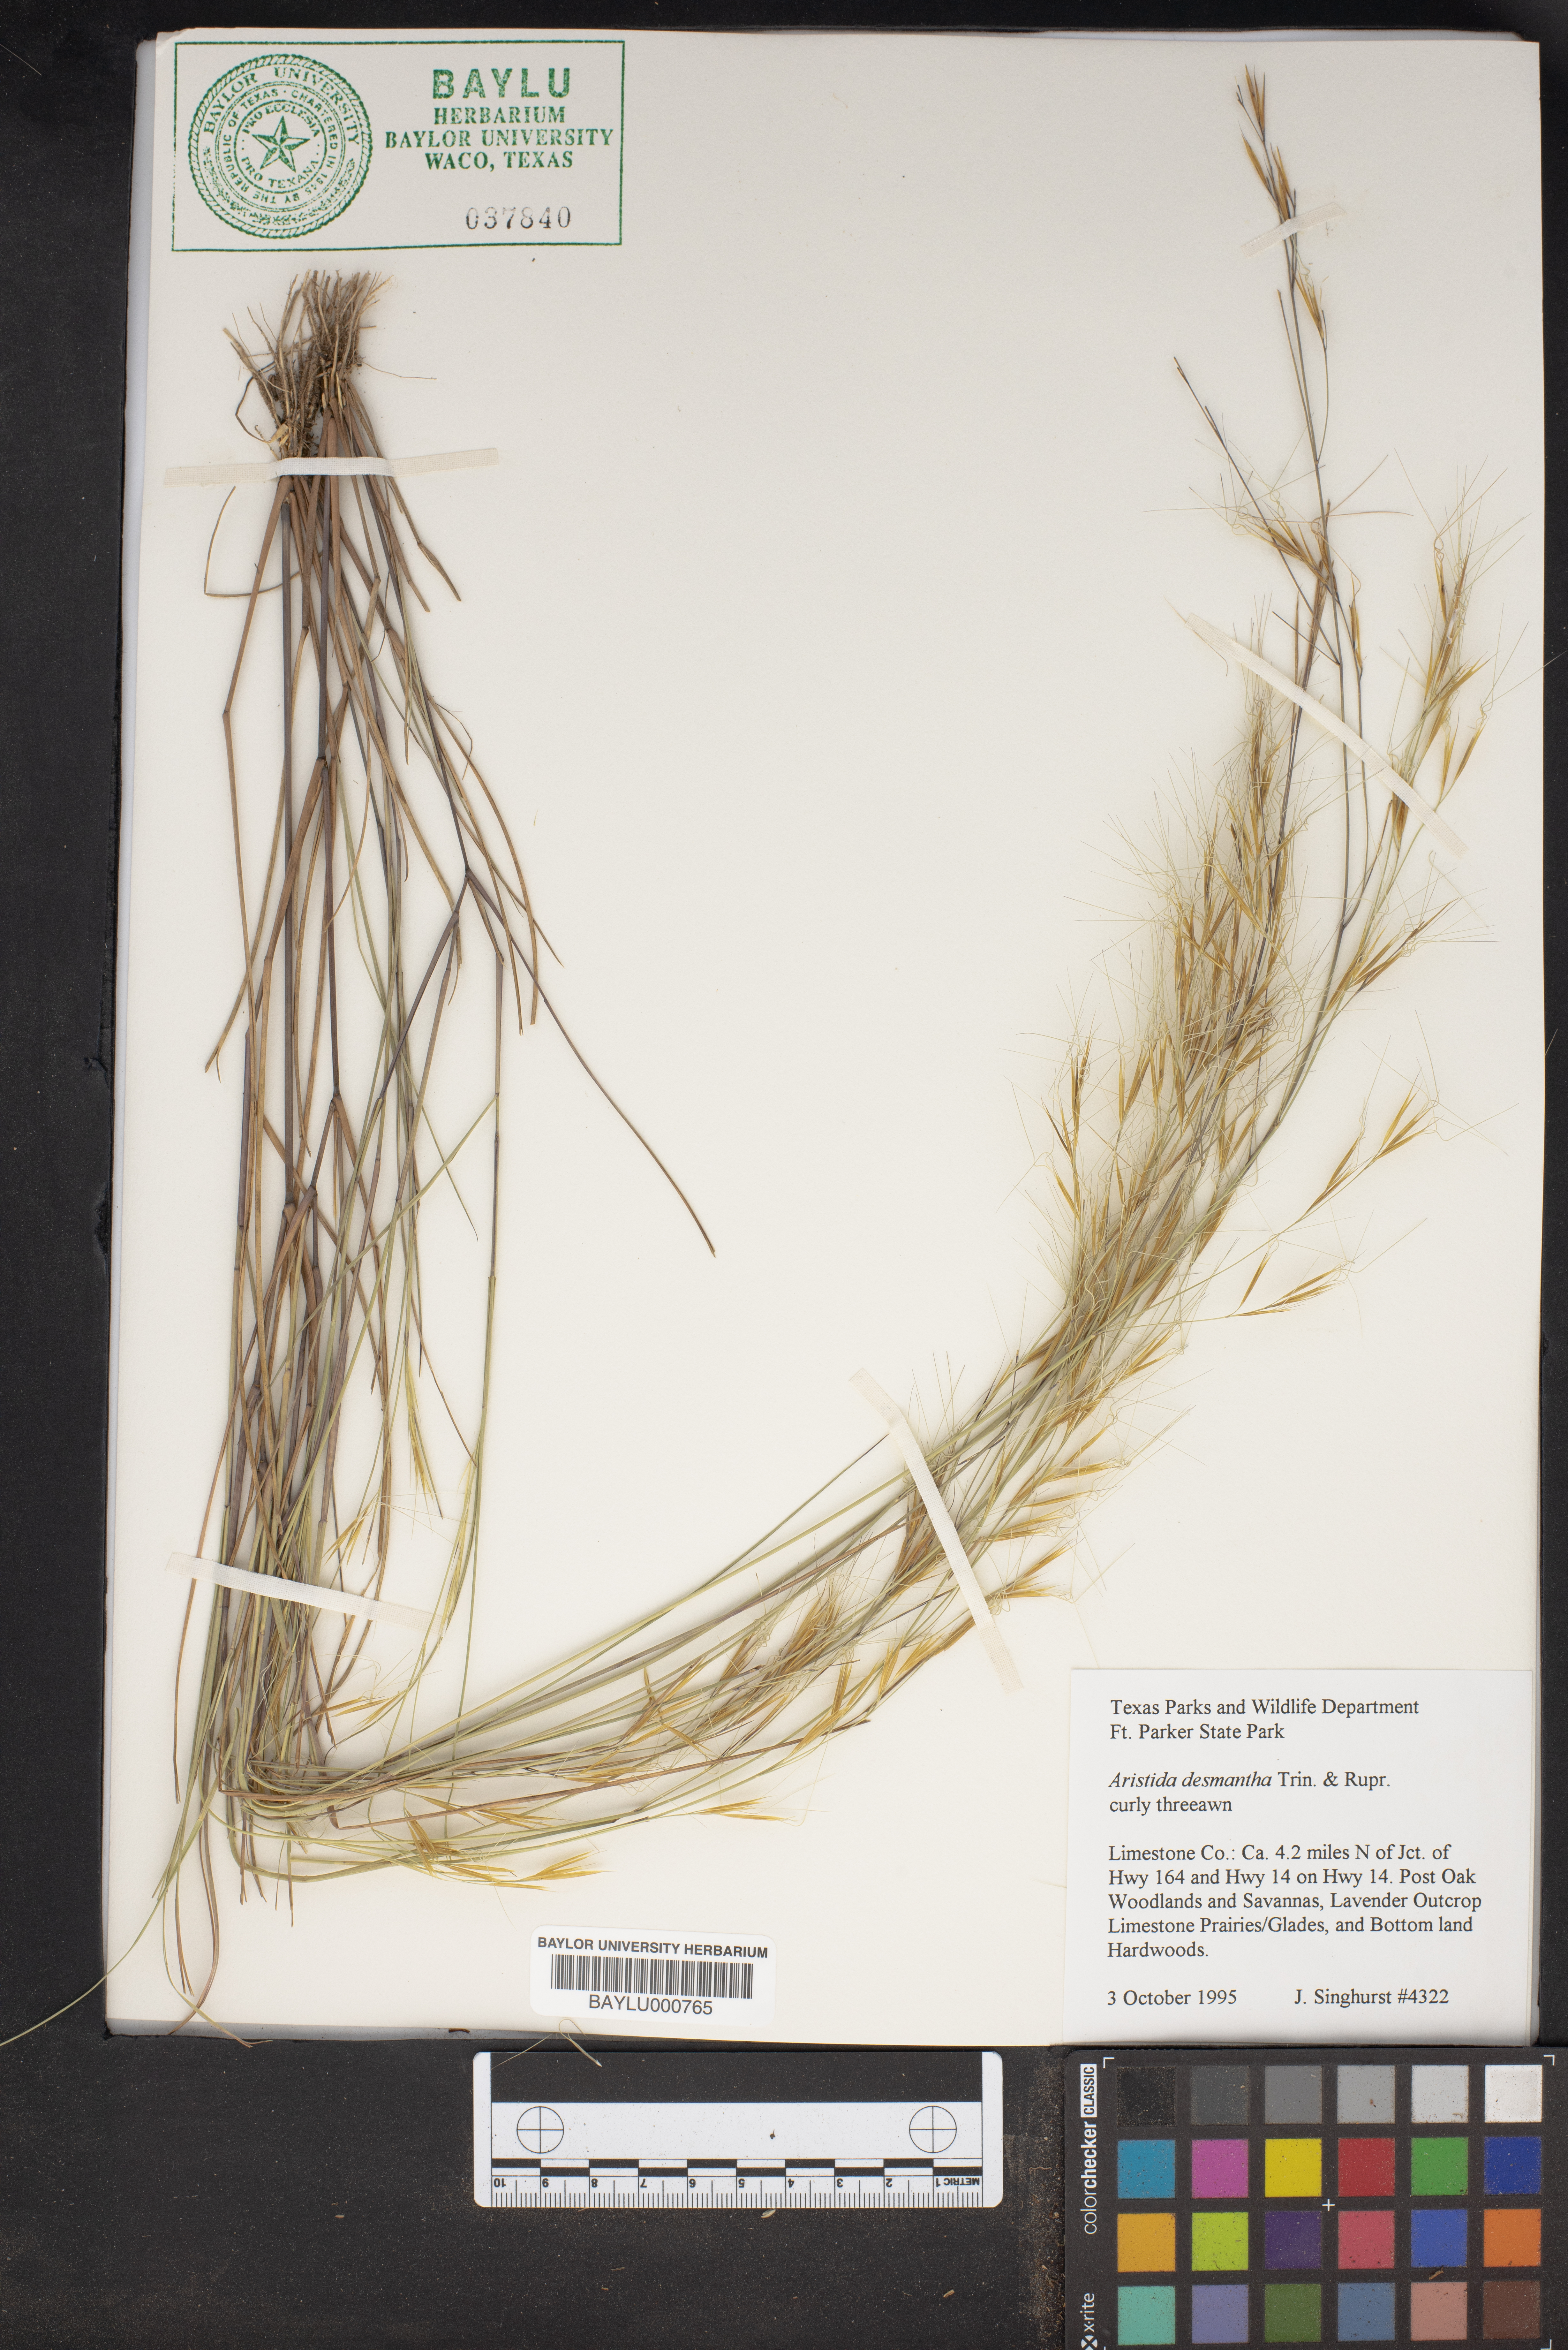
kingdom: Plantae
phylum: Tracheophyta
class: Liliopsida
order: Poales
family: Poaceae
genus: Aristida
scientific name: Aristida desmantha
